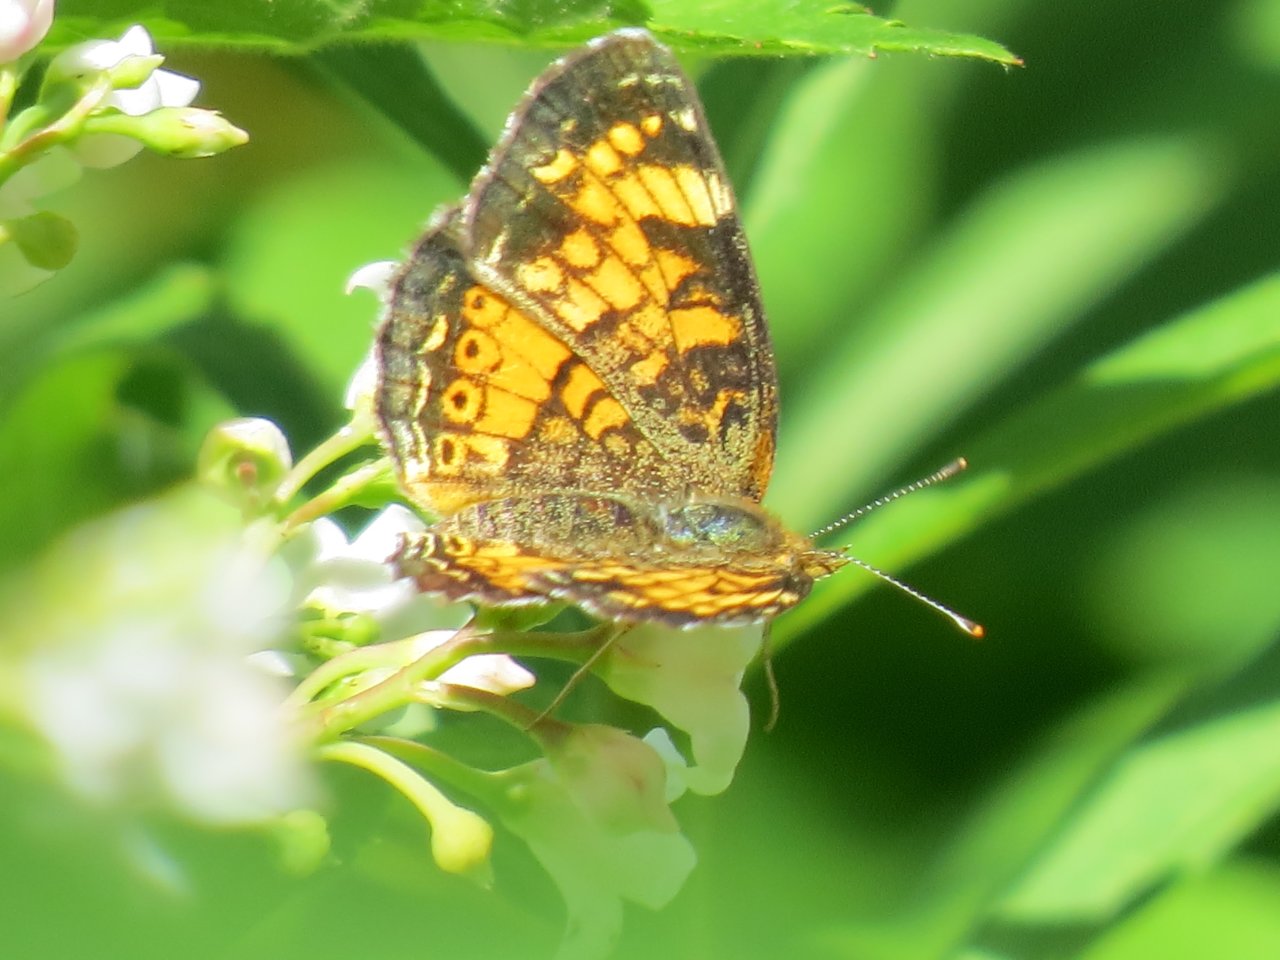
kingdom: Animalia
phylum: Arthropoda
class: Insecta
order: Lepidoptera
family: Nymphalidae
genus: Phyciodes
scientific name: Phyciodes tharos
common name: Northern Crescent
